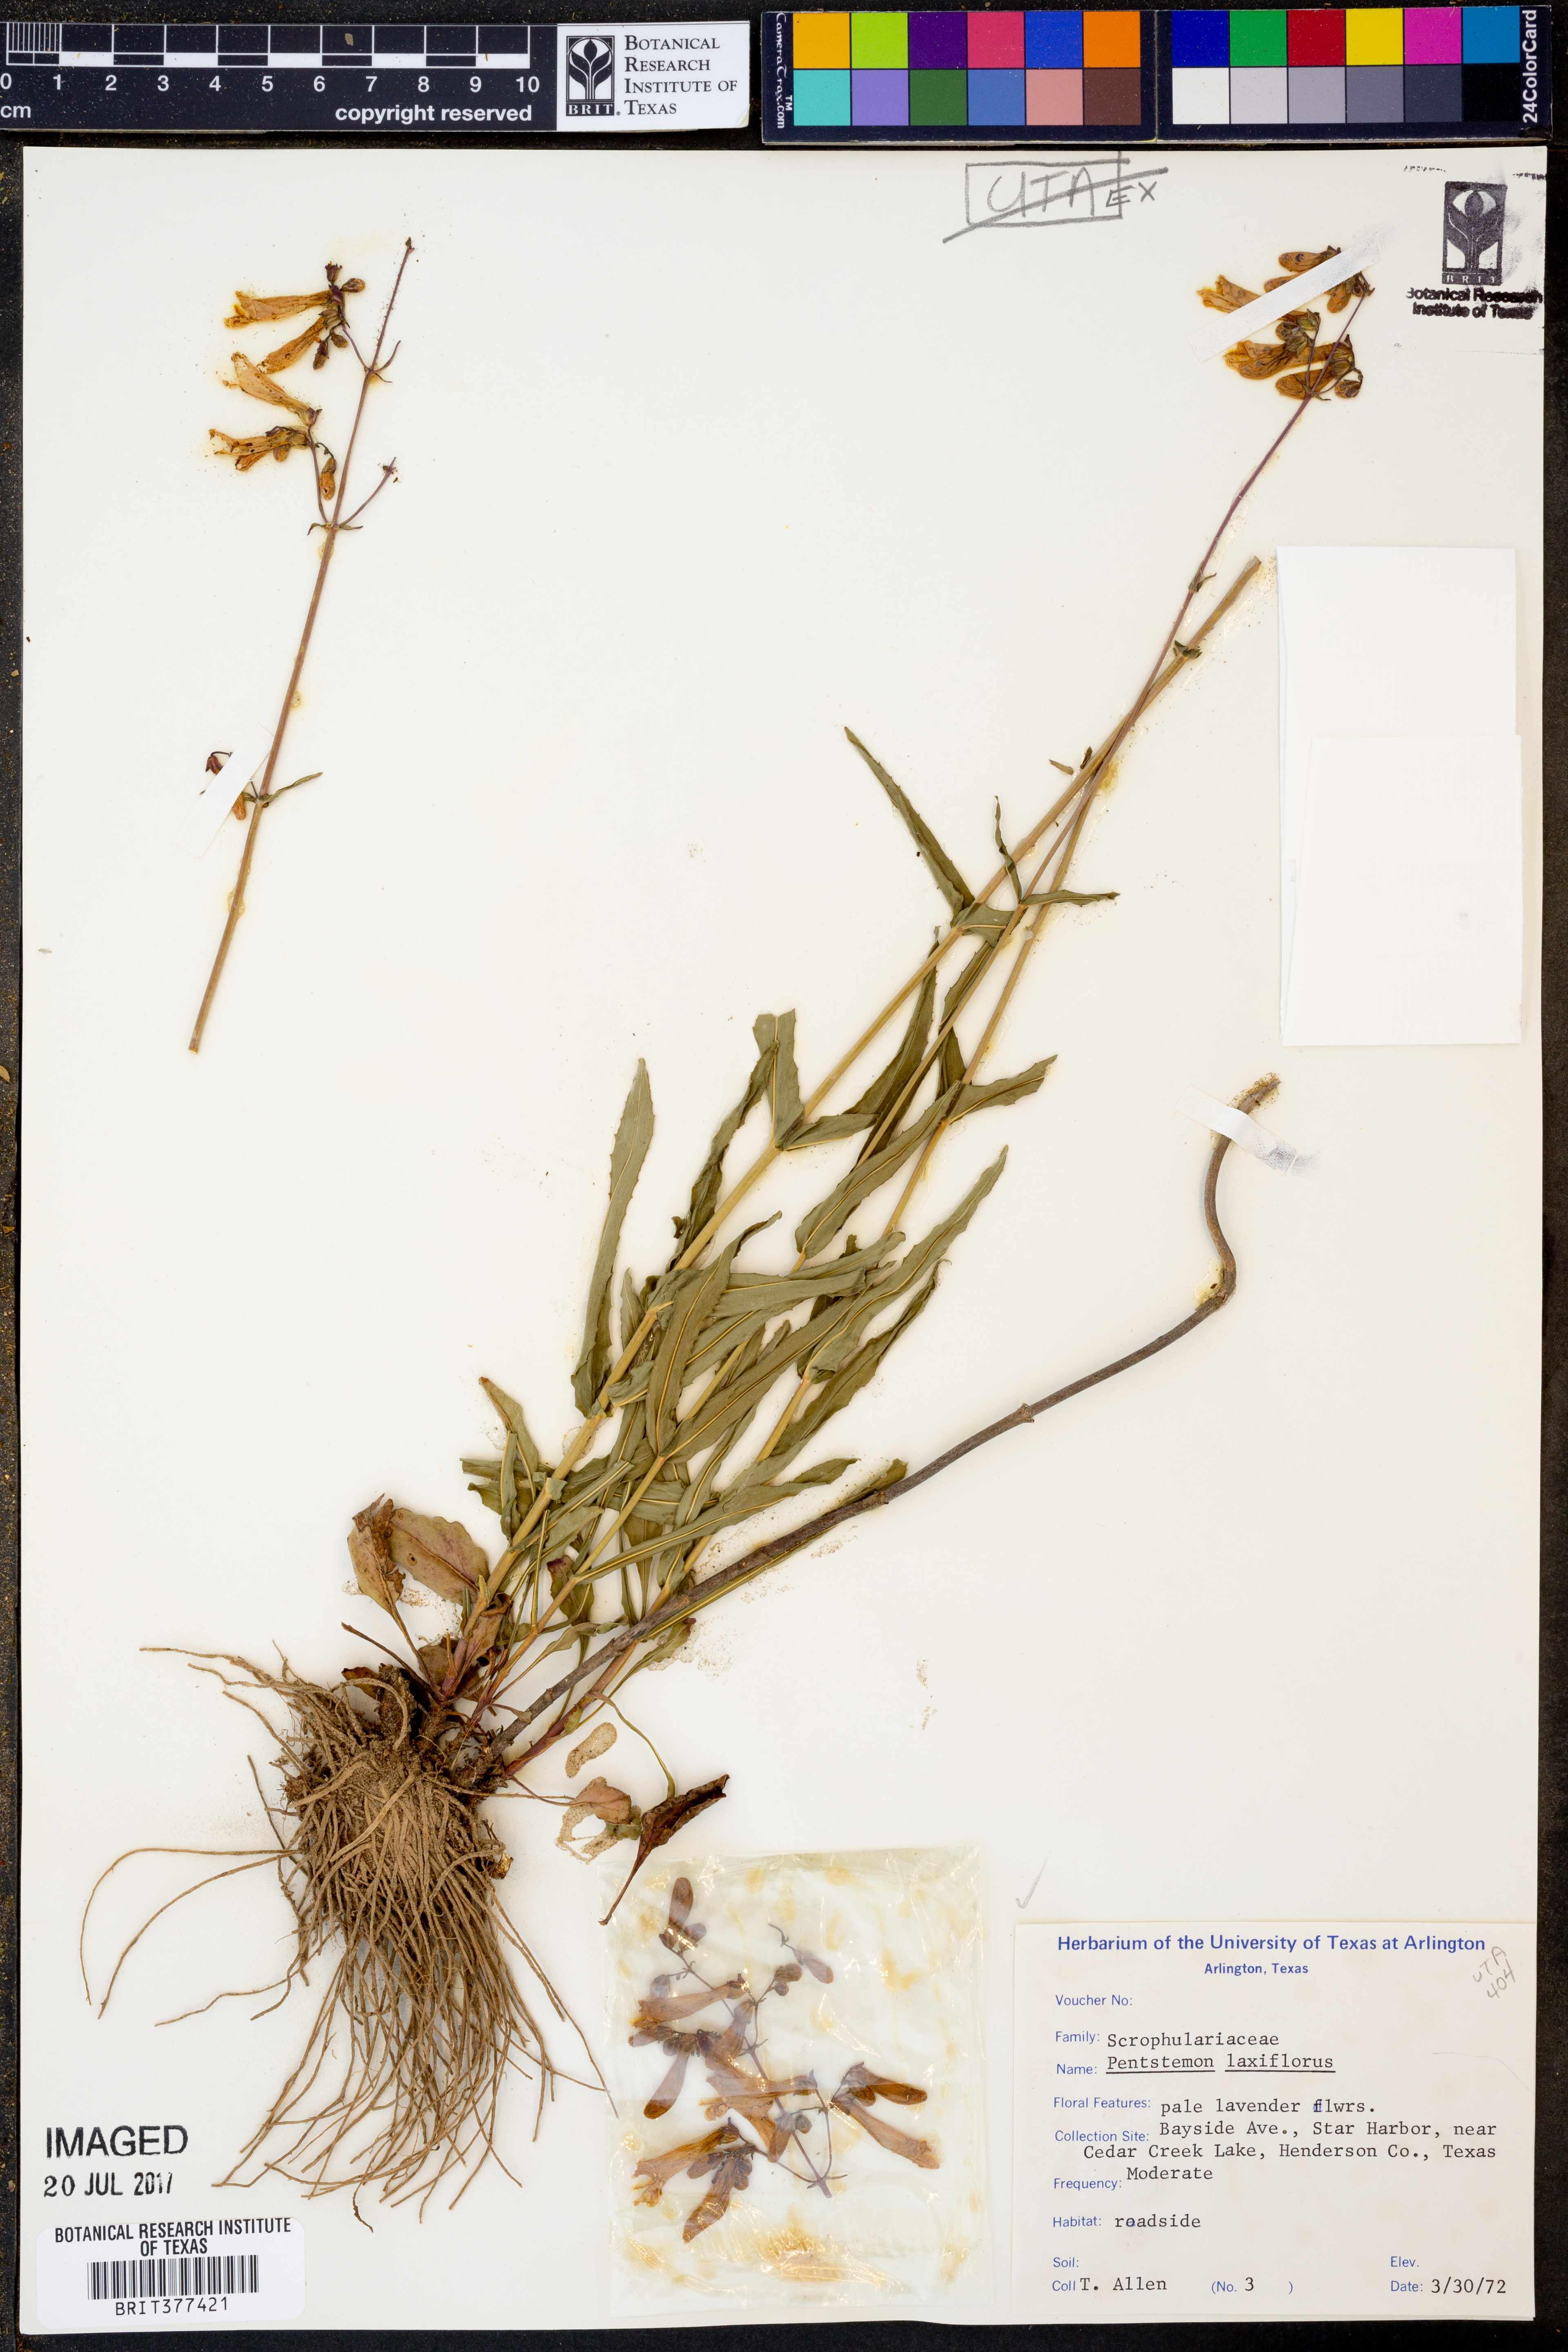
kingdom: Plantae
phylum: Tracheophyta
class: Magnoliopsida
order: Lamiales
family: Plantaginaceae
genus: Penstemon
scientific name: Penstemon laxiflorus
